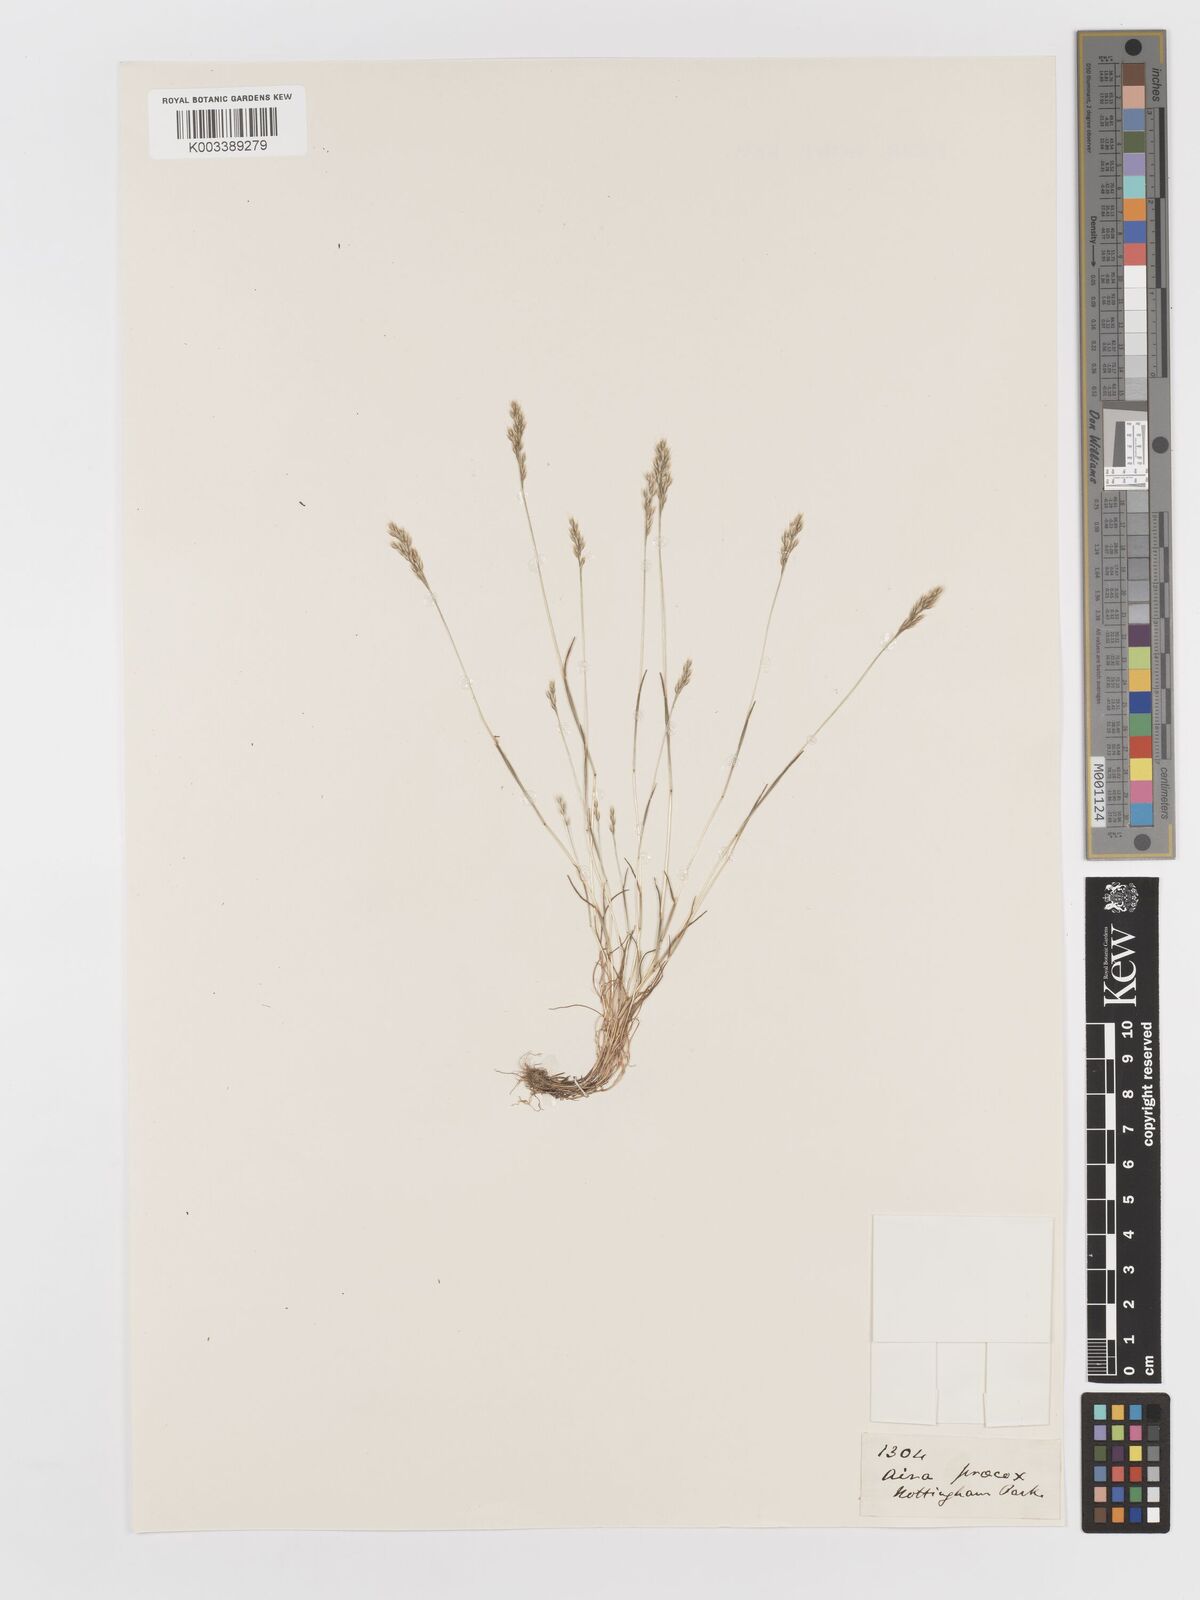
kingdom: Plantae
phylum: Tracheophyta
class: Liliopsida
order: Poales
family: Poaceae
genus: Aira
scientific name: Aira praecox
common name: Early hair-grass
